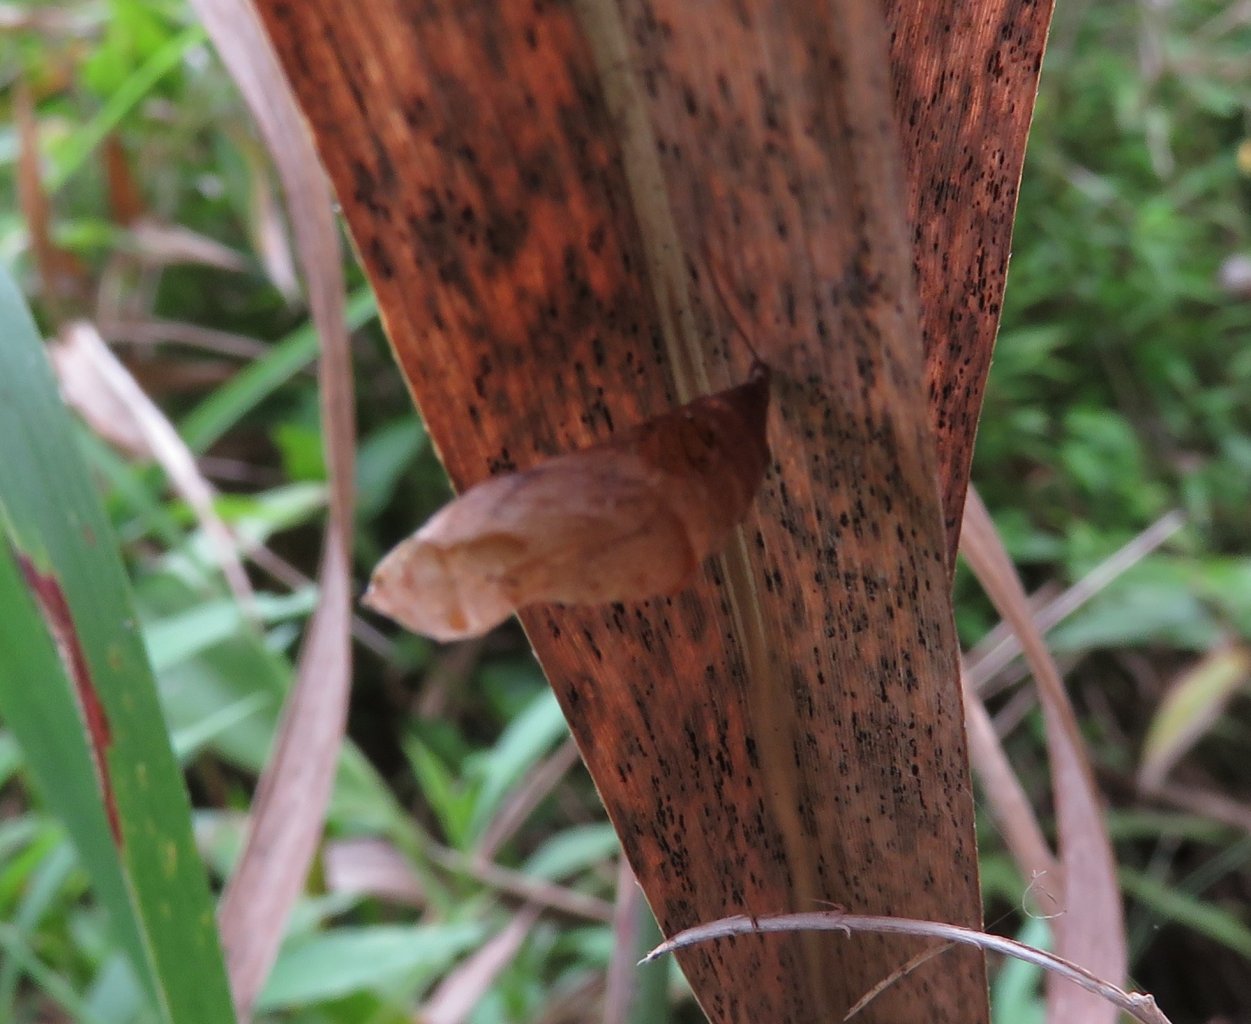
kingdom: Animalia
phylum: Arthropoda
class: Insecta
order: Lepidoptera
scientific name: Lepidoptera
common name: Butterflies
